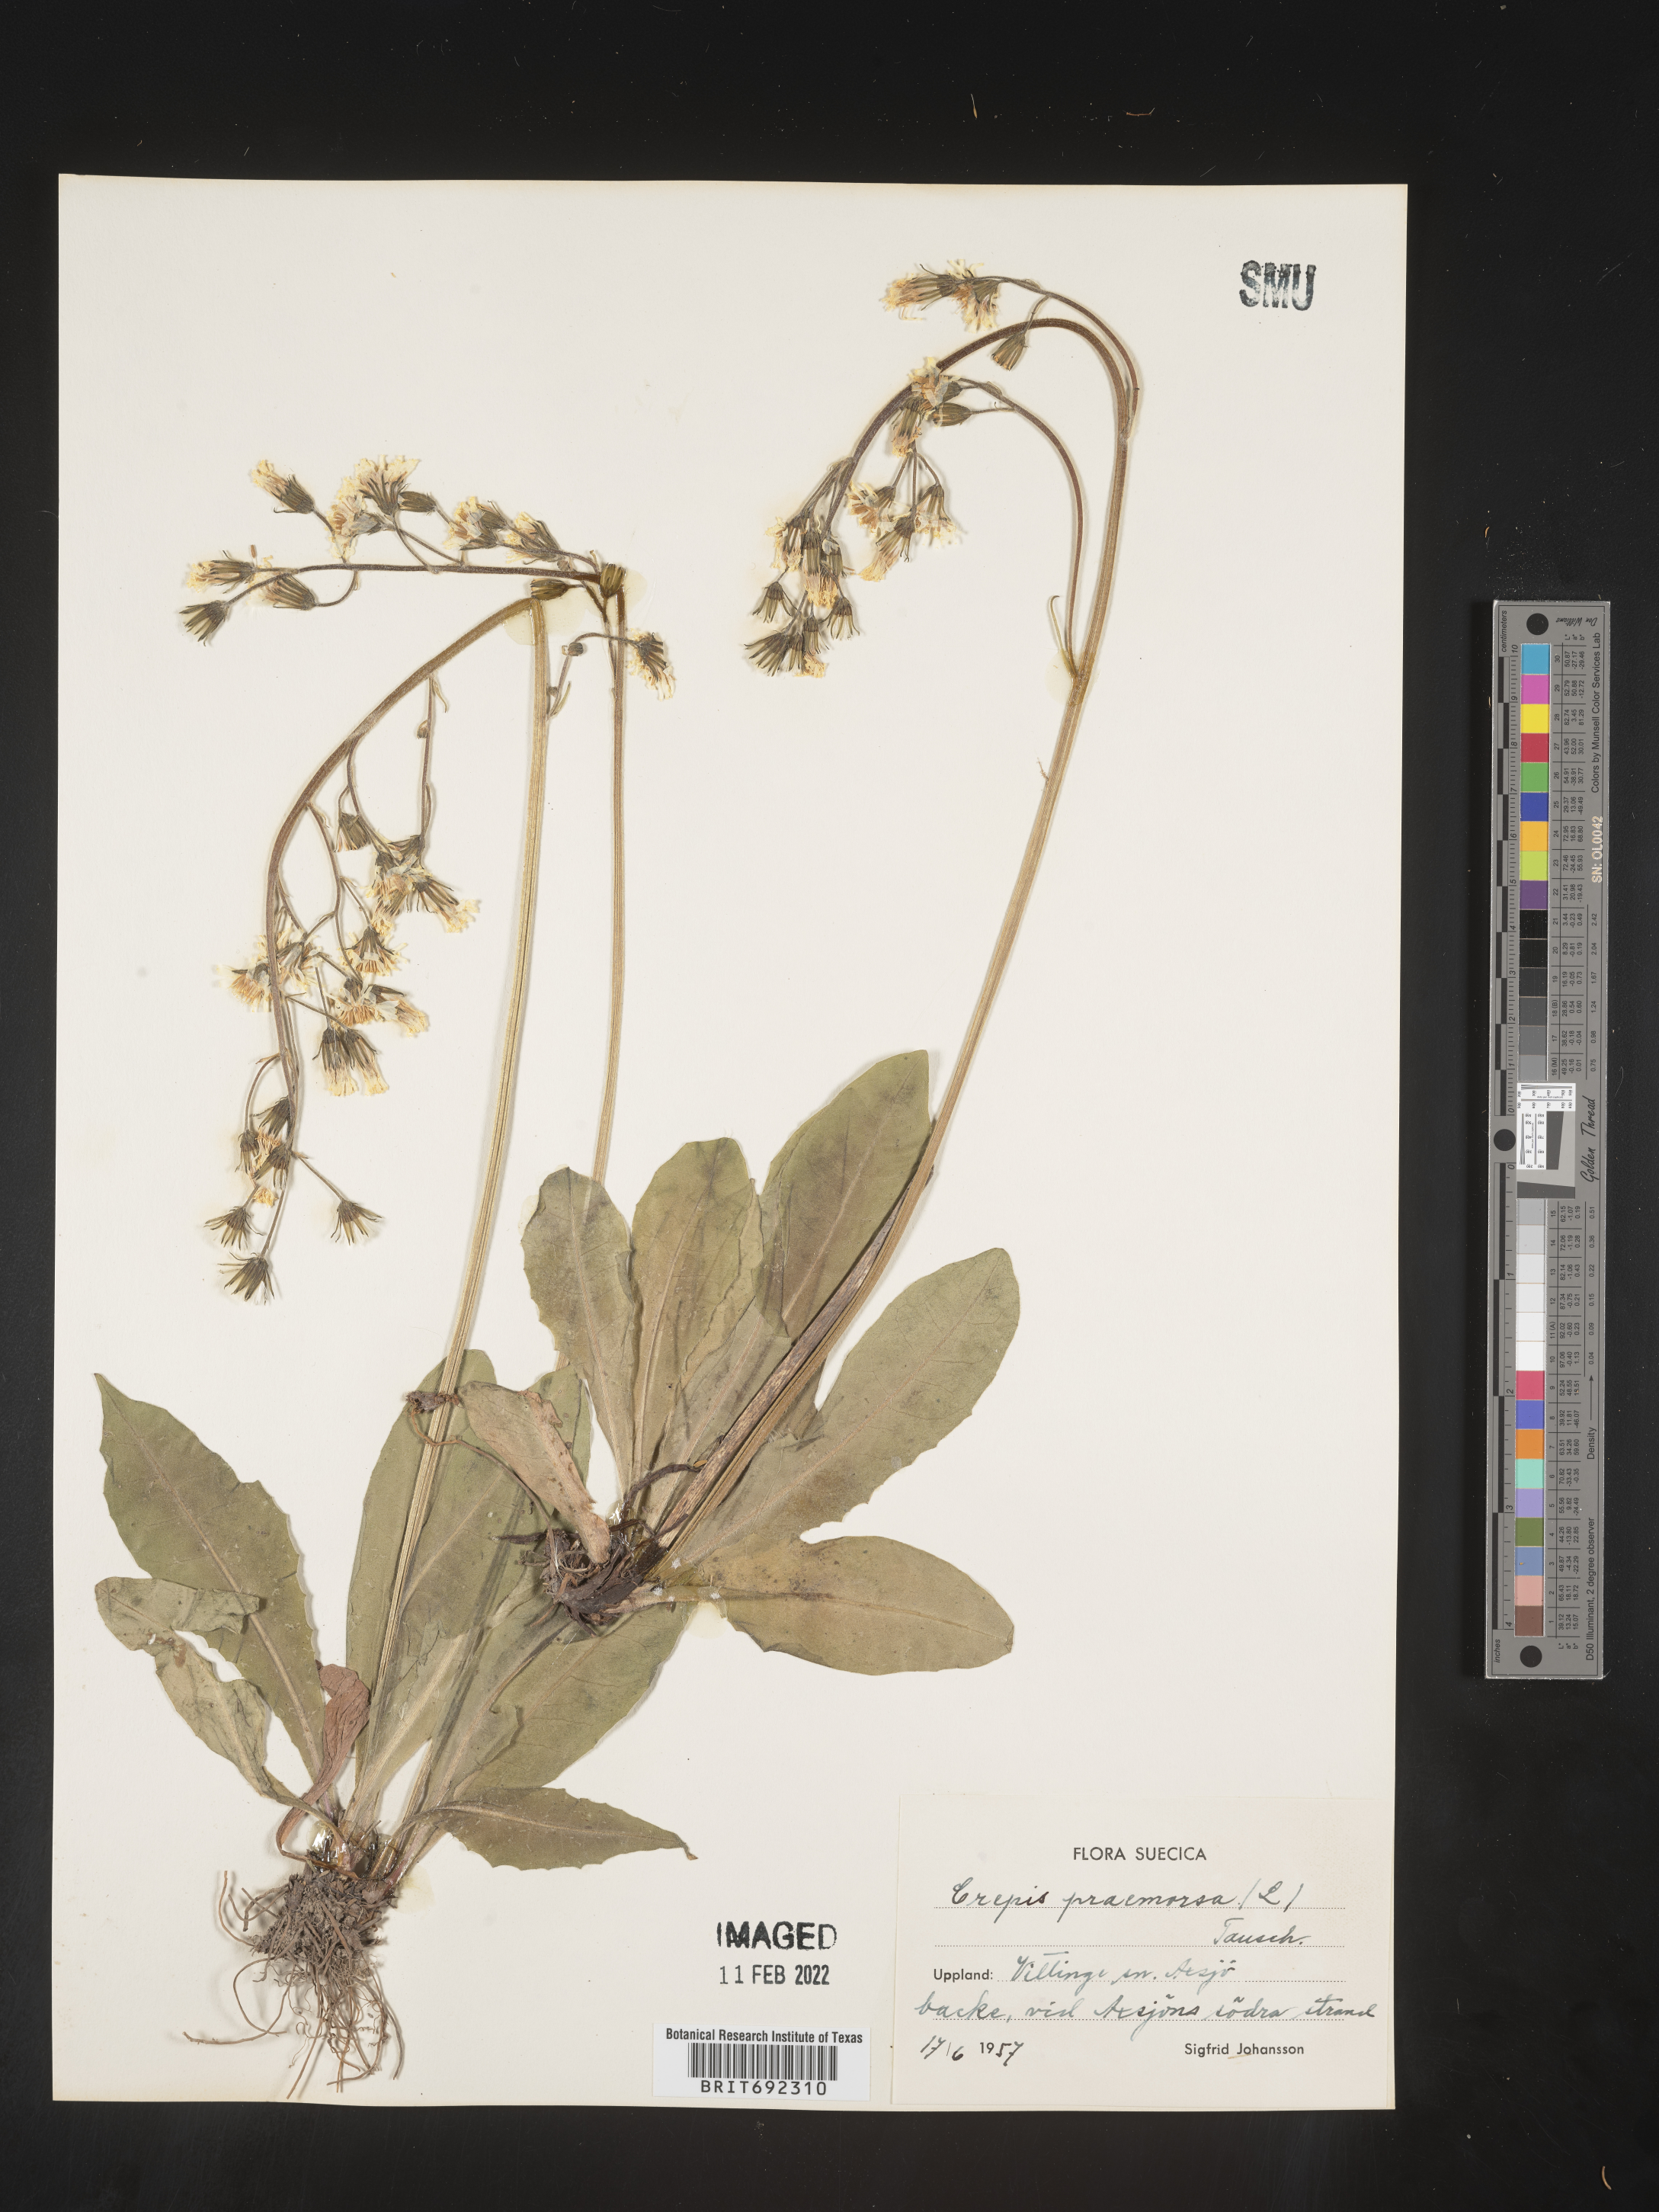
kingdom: Plantae
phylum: Tracheophyta
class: Magnoliopsida
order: Asterales
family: Asteraceae
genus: Crepis
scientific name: Crepis
